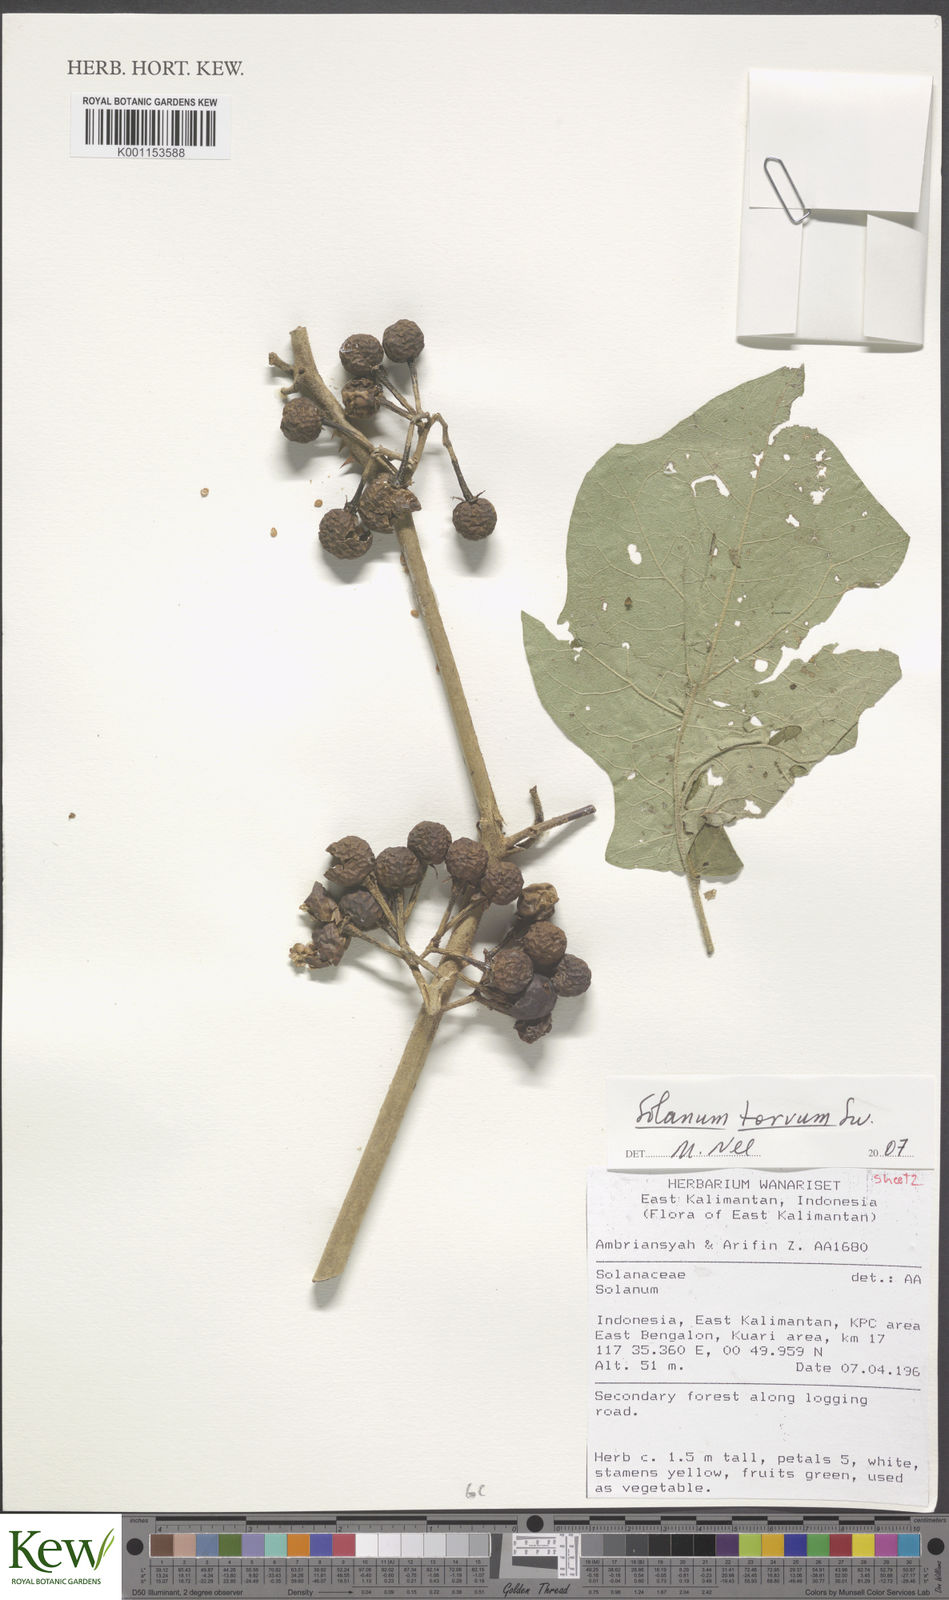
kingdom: Plantae
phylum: Tracheophyta
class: Magnoliopsida
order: Solanales
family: Solanaceae
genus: Solanum
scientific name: Solanum torvum
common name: Turkey berry
